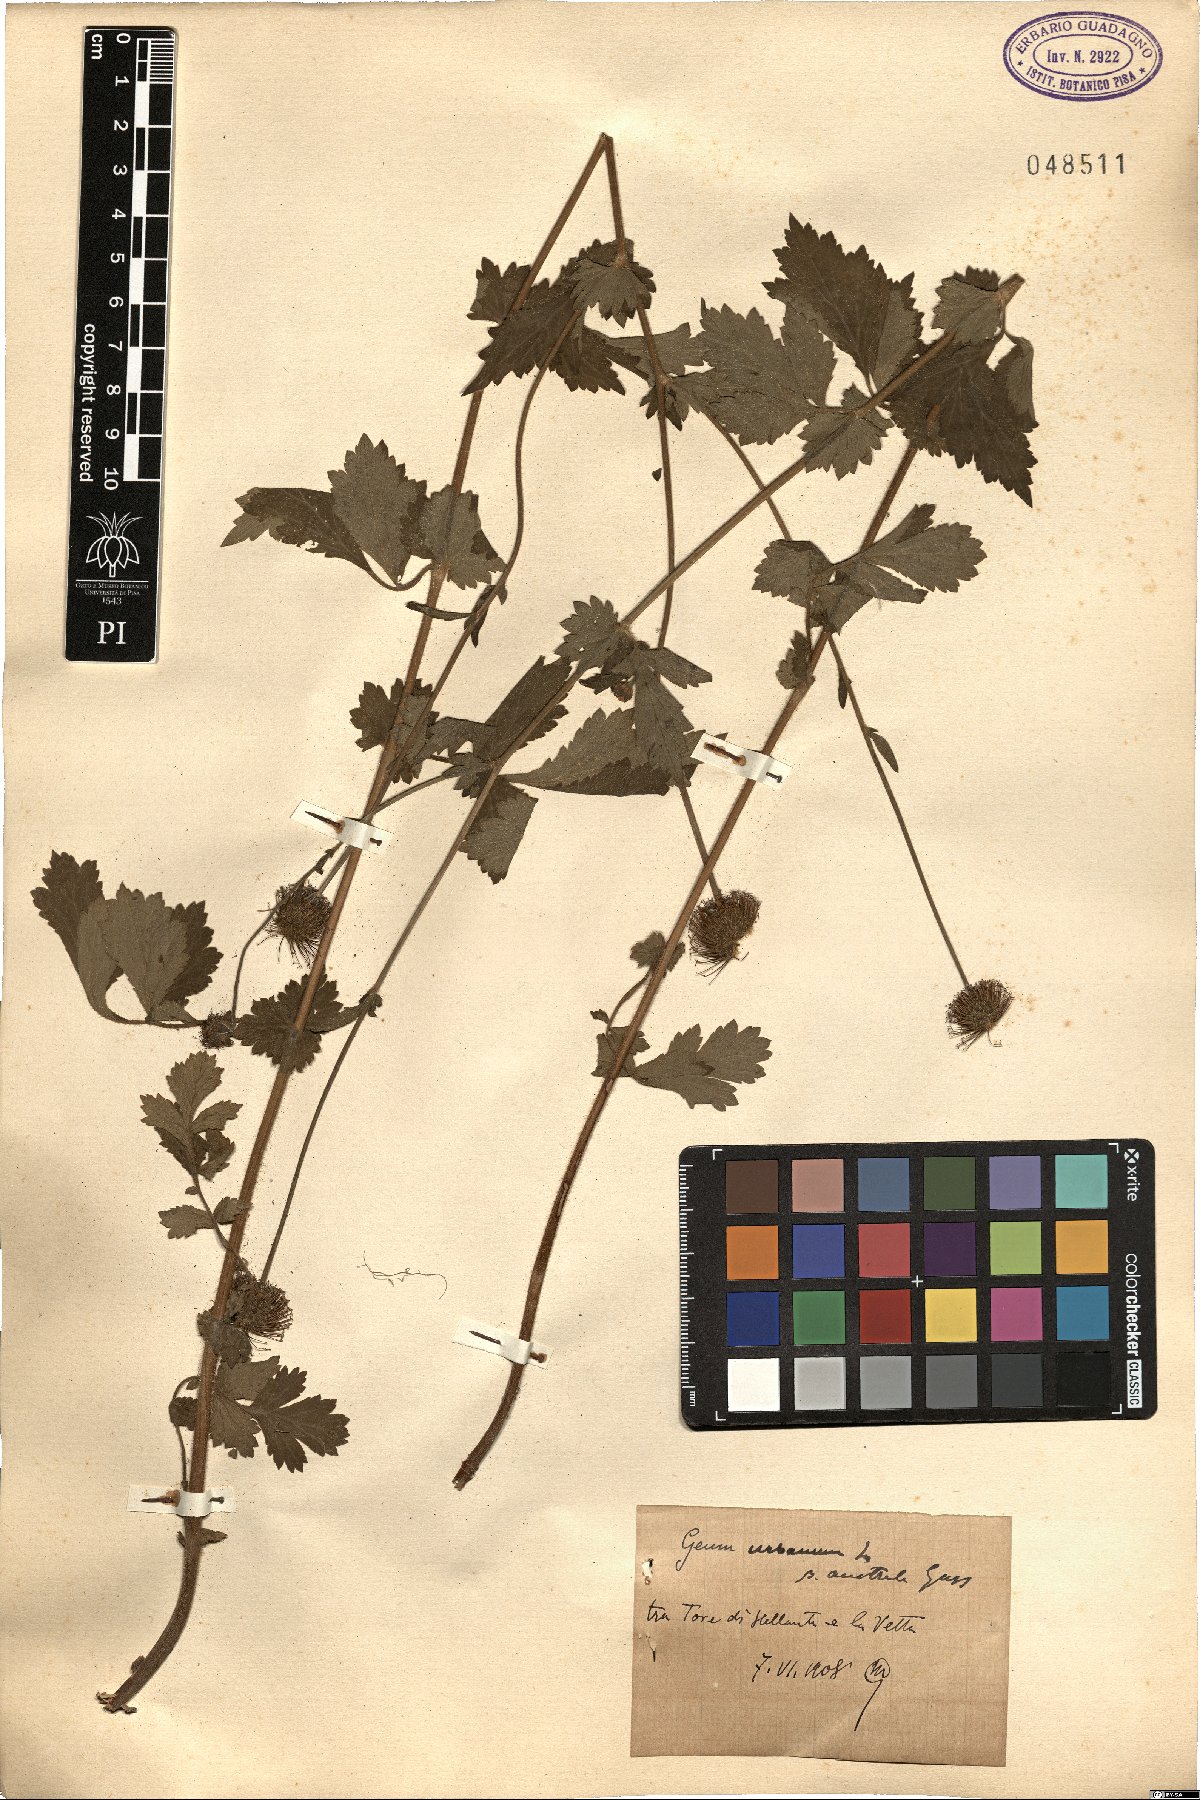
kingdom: Plantae
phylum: Tracheophyta
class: Magnoliopsida
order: Rosales
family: Rosaceae
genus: Geum
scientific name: Geum urbanum
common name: Wood avens
